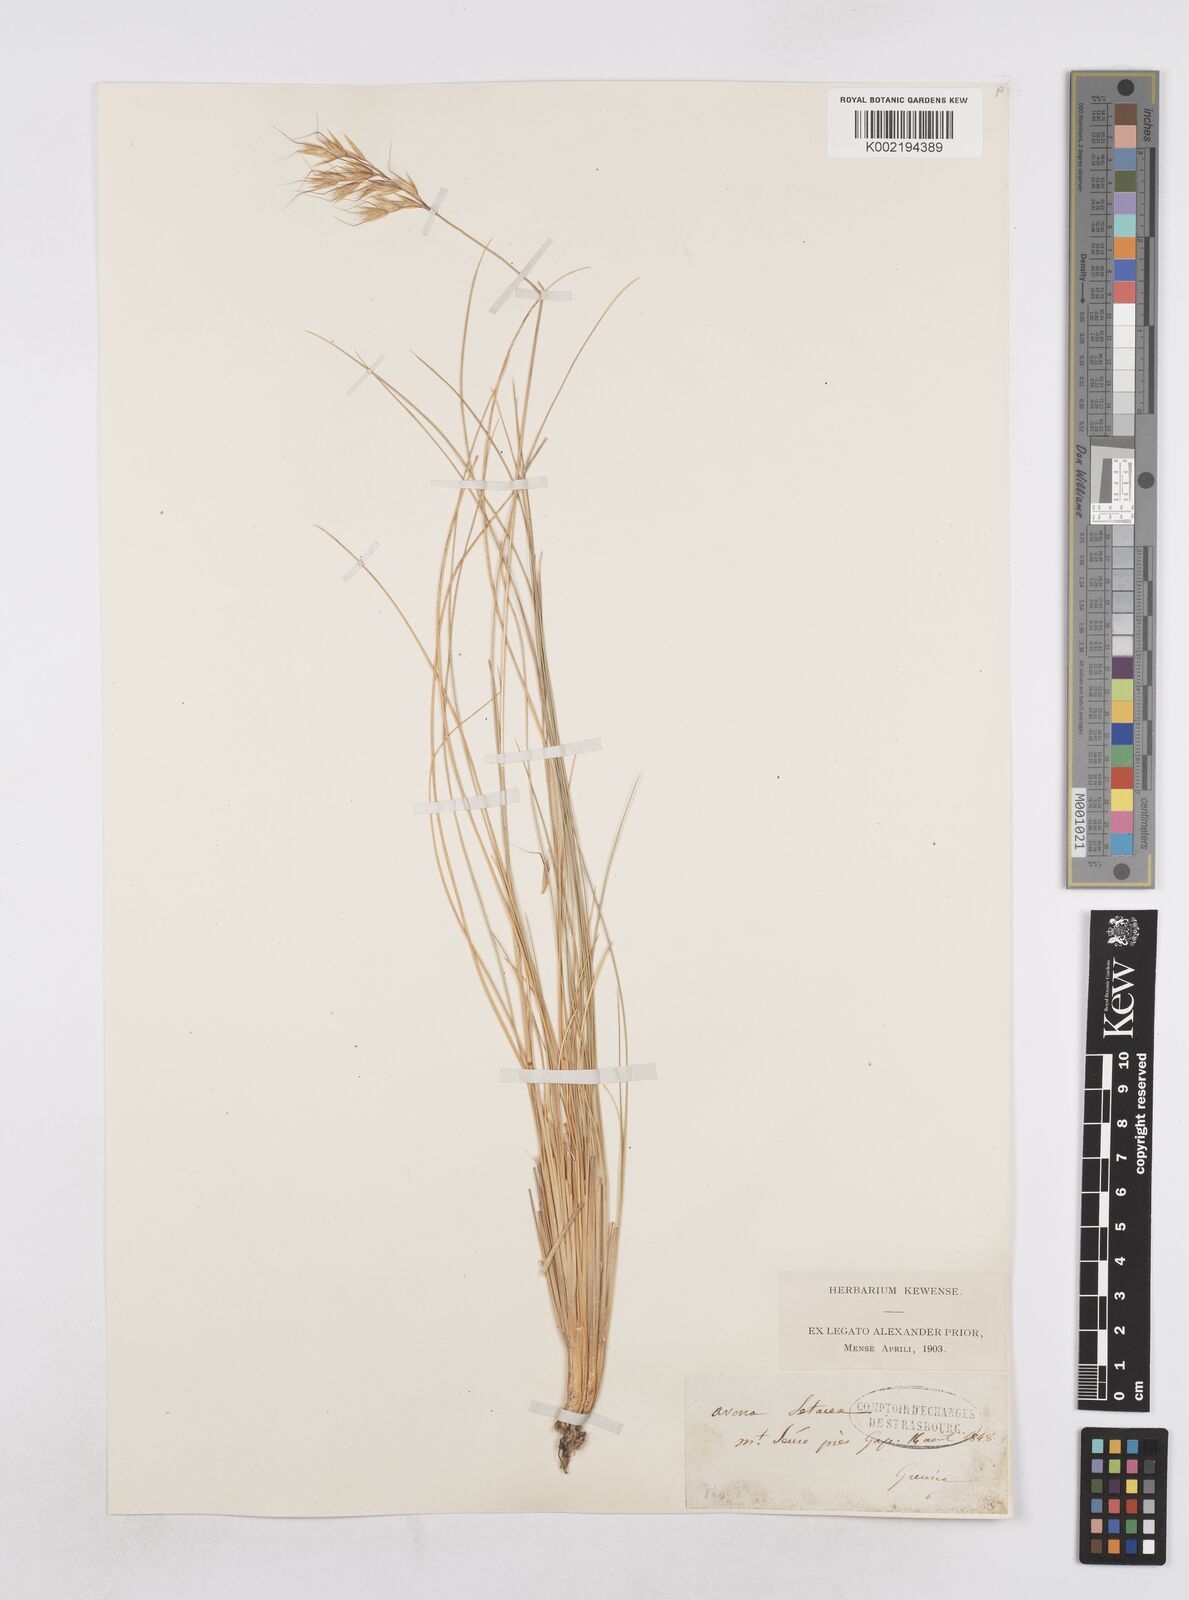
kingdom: Plantae
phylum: Tracheophyta
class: Liliopsida
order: Poales
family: Poaceae
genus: Helictotrichon
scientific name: Helictotrichon setaceum
